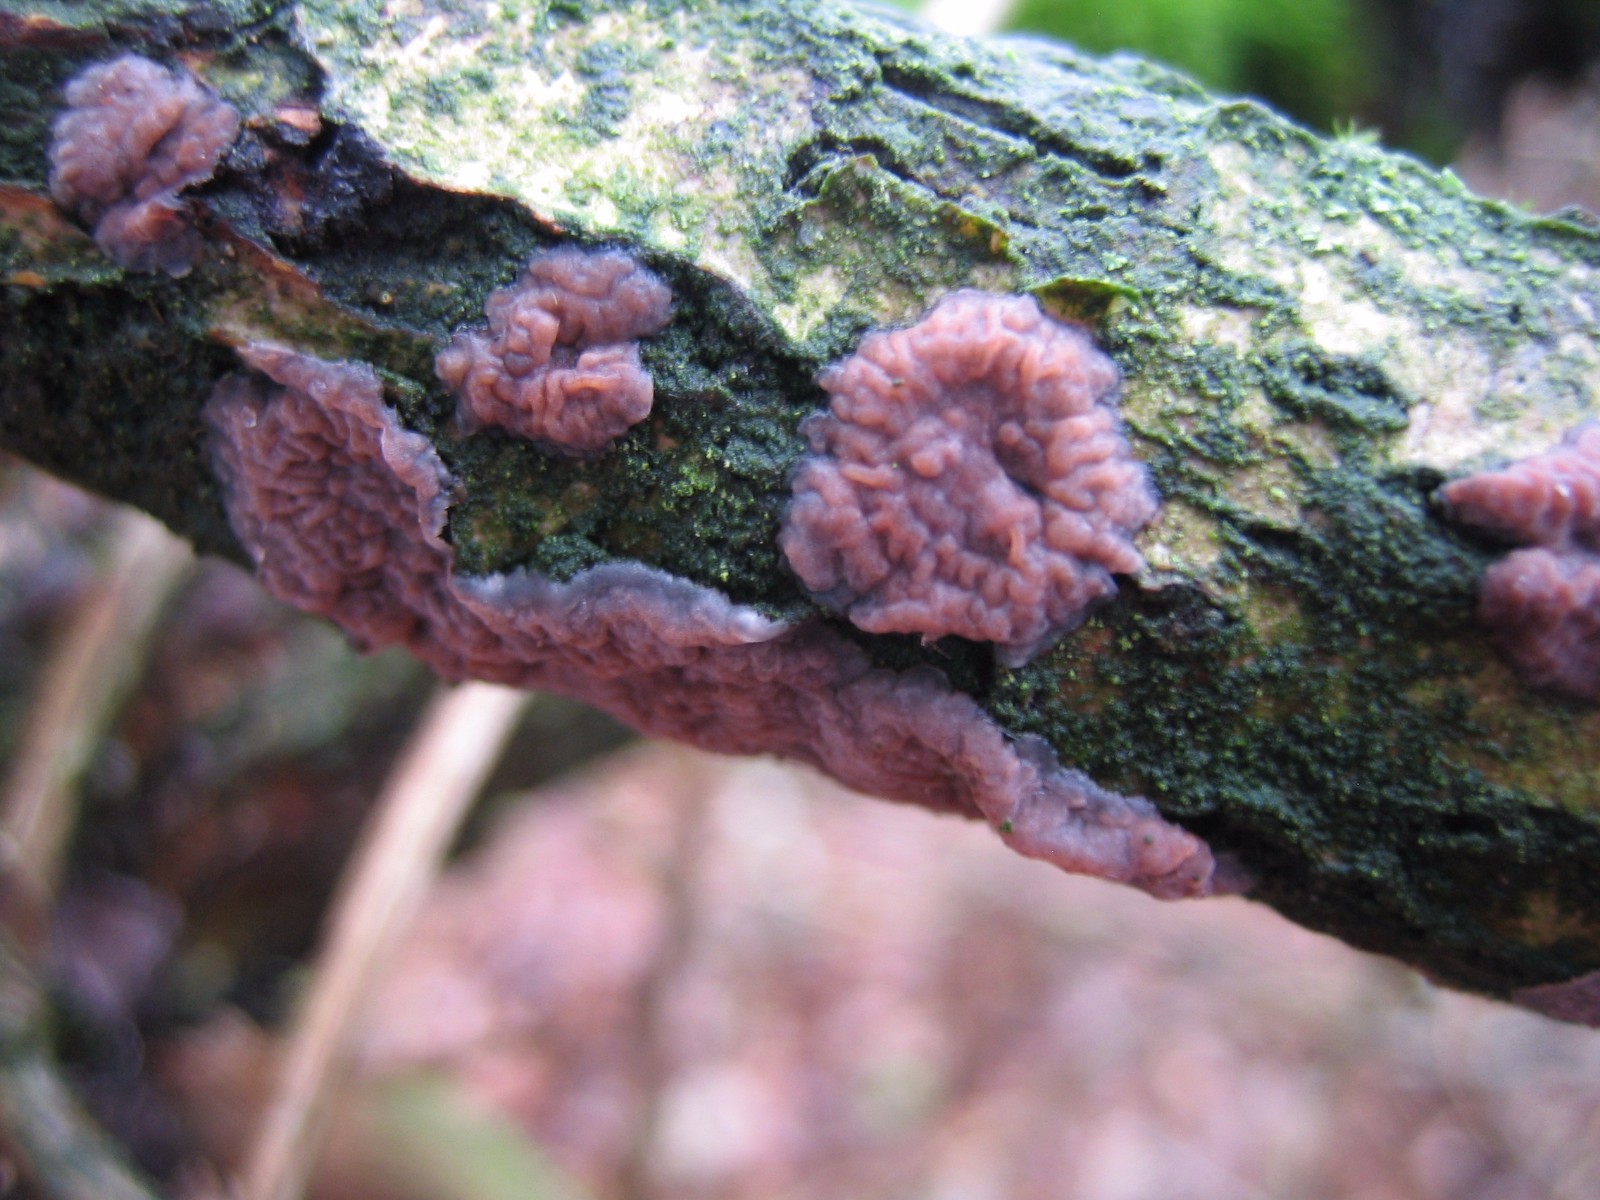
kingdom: Fungi
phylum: Basidiomycota
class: Agaricomycetes
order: Russulales
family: Peniophoraceae
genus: Peniophora
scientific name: Peniophora quercina
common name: ege-voksskind
